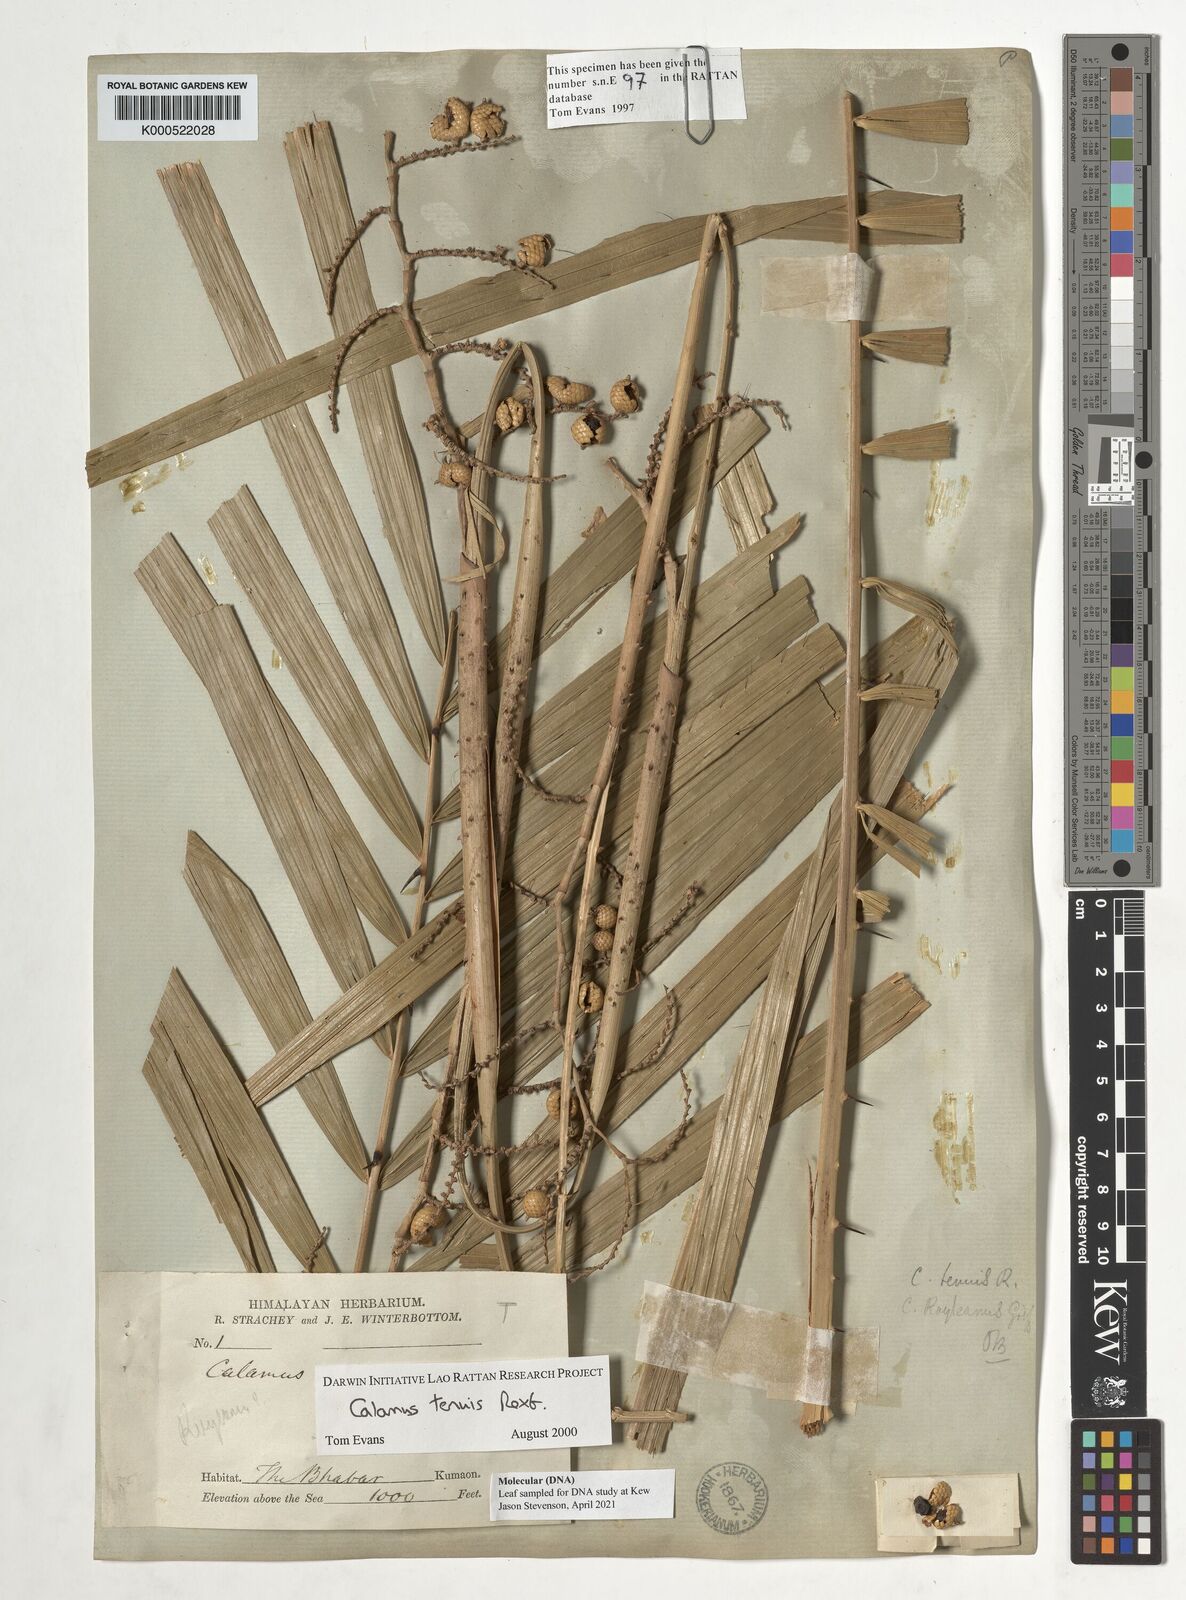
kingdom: Plantae
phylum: Tracheophyta
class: Liliopsida
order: Arecales
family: Arecaceae
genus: Calamus
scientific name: Calamus tenuis
